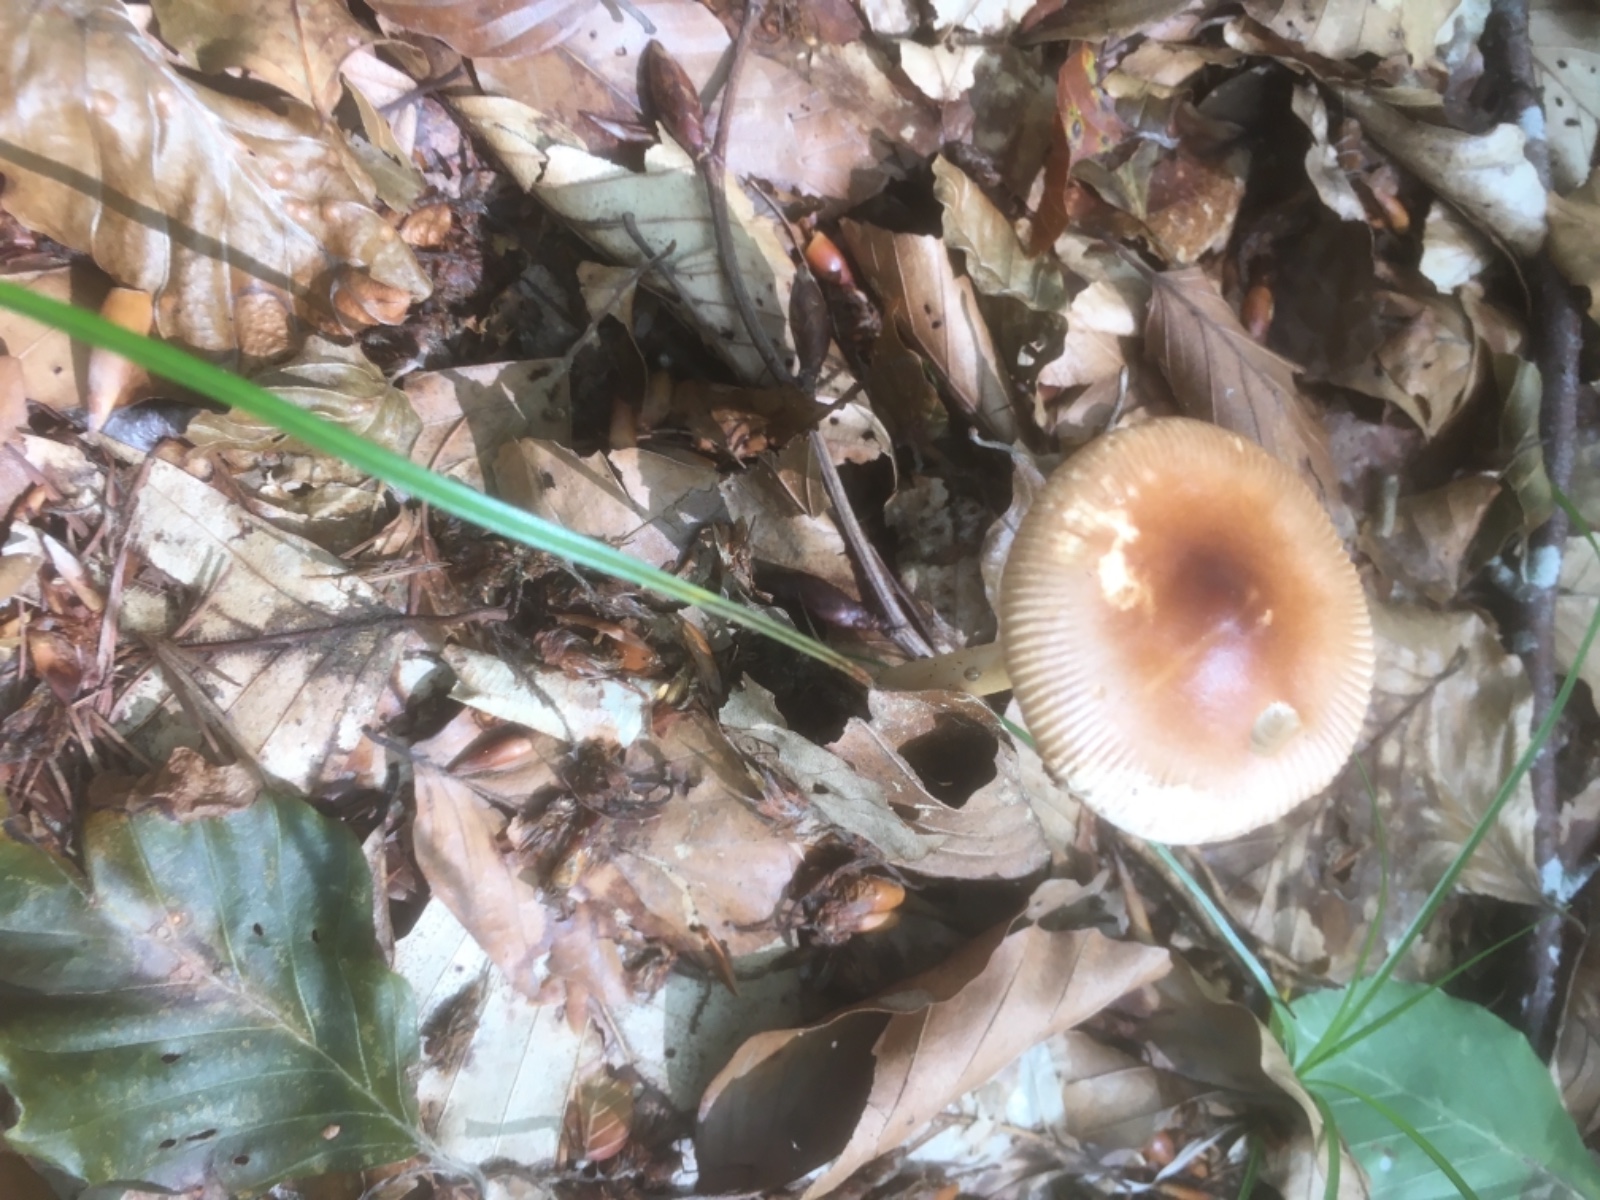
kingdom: Fungi
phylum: Basidiomycota
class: Agaricomycetes
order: Agaricales
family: Amanitaceae
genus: Amanita
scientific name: Amanita fulva
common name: brun kam-fluesvamp
